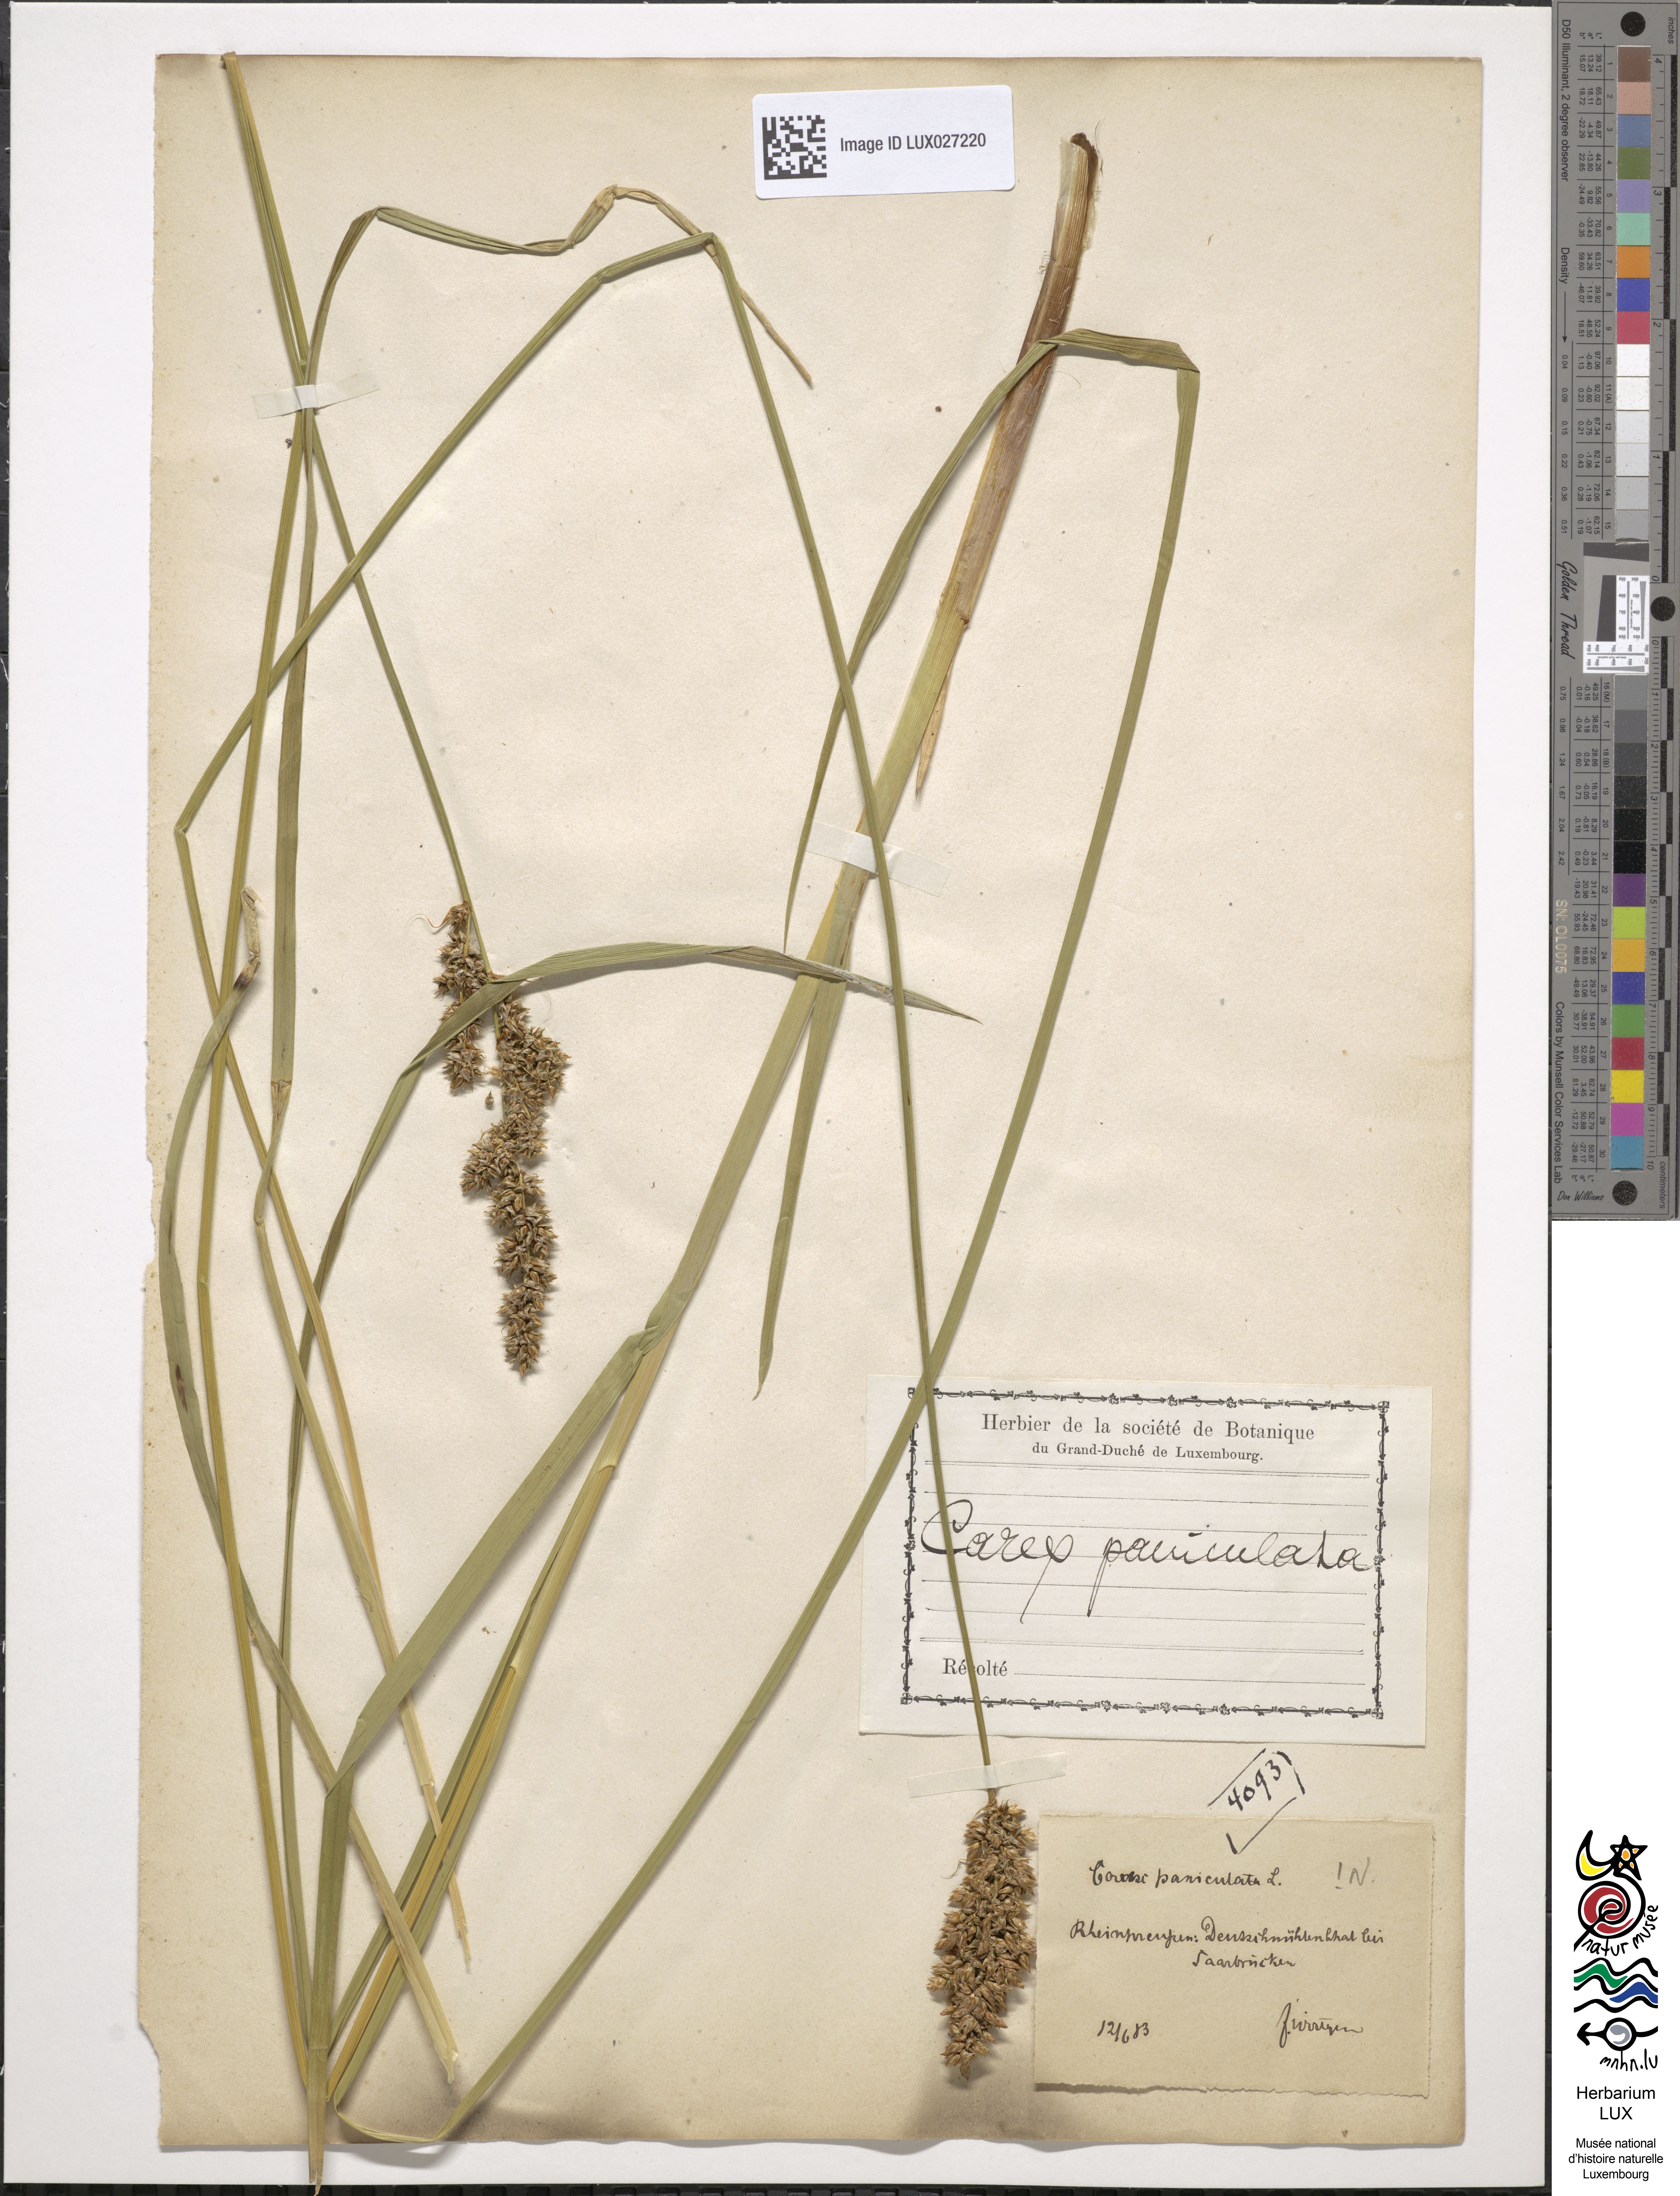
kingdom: Plantae
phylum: Tracheophyta
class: Liliopsida
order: Poales
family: Cyperaceae
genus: Carex
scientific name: Carex paniculata
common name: Greater tussock-sedge
